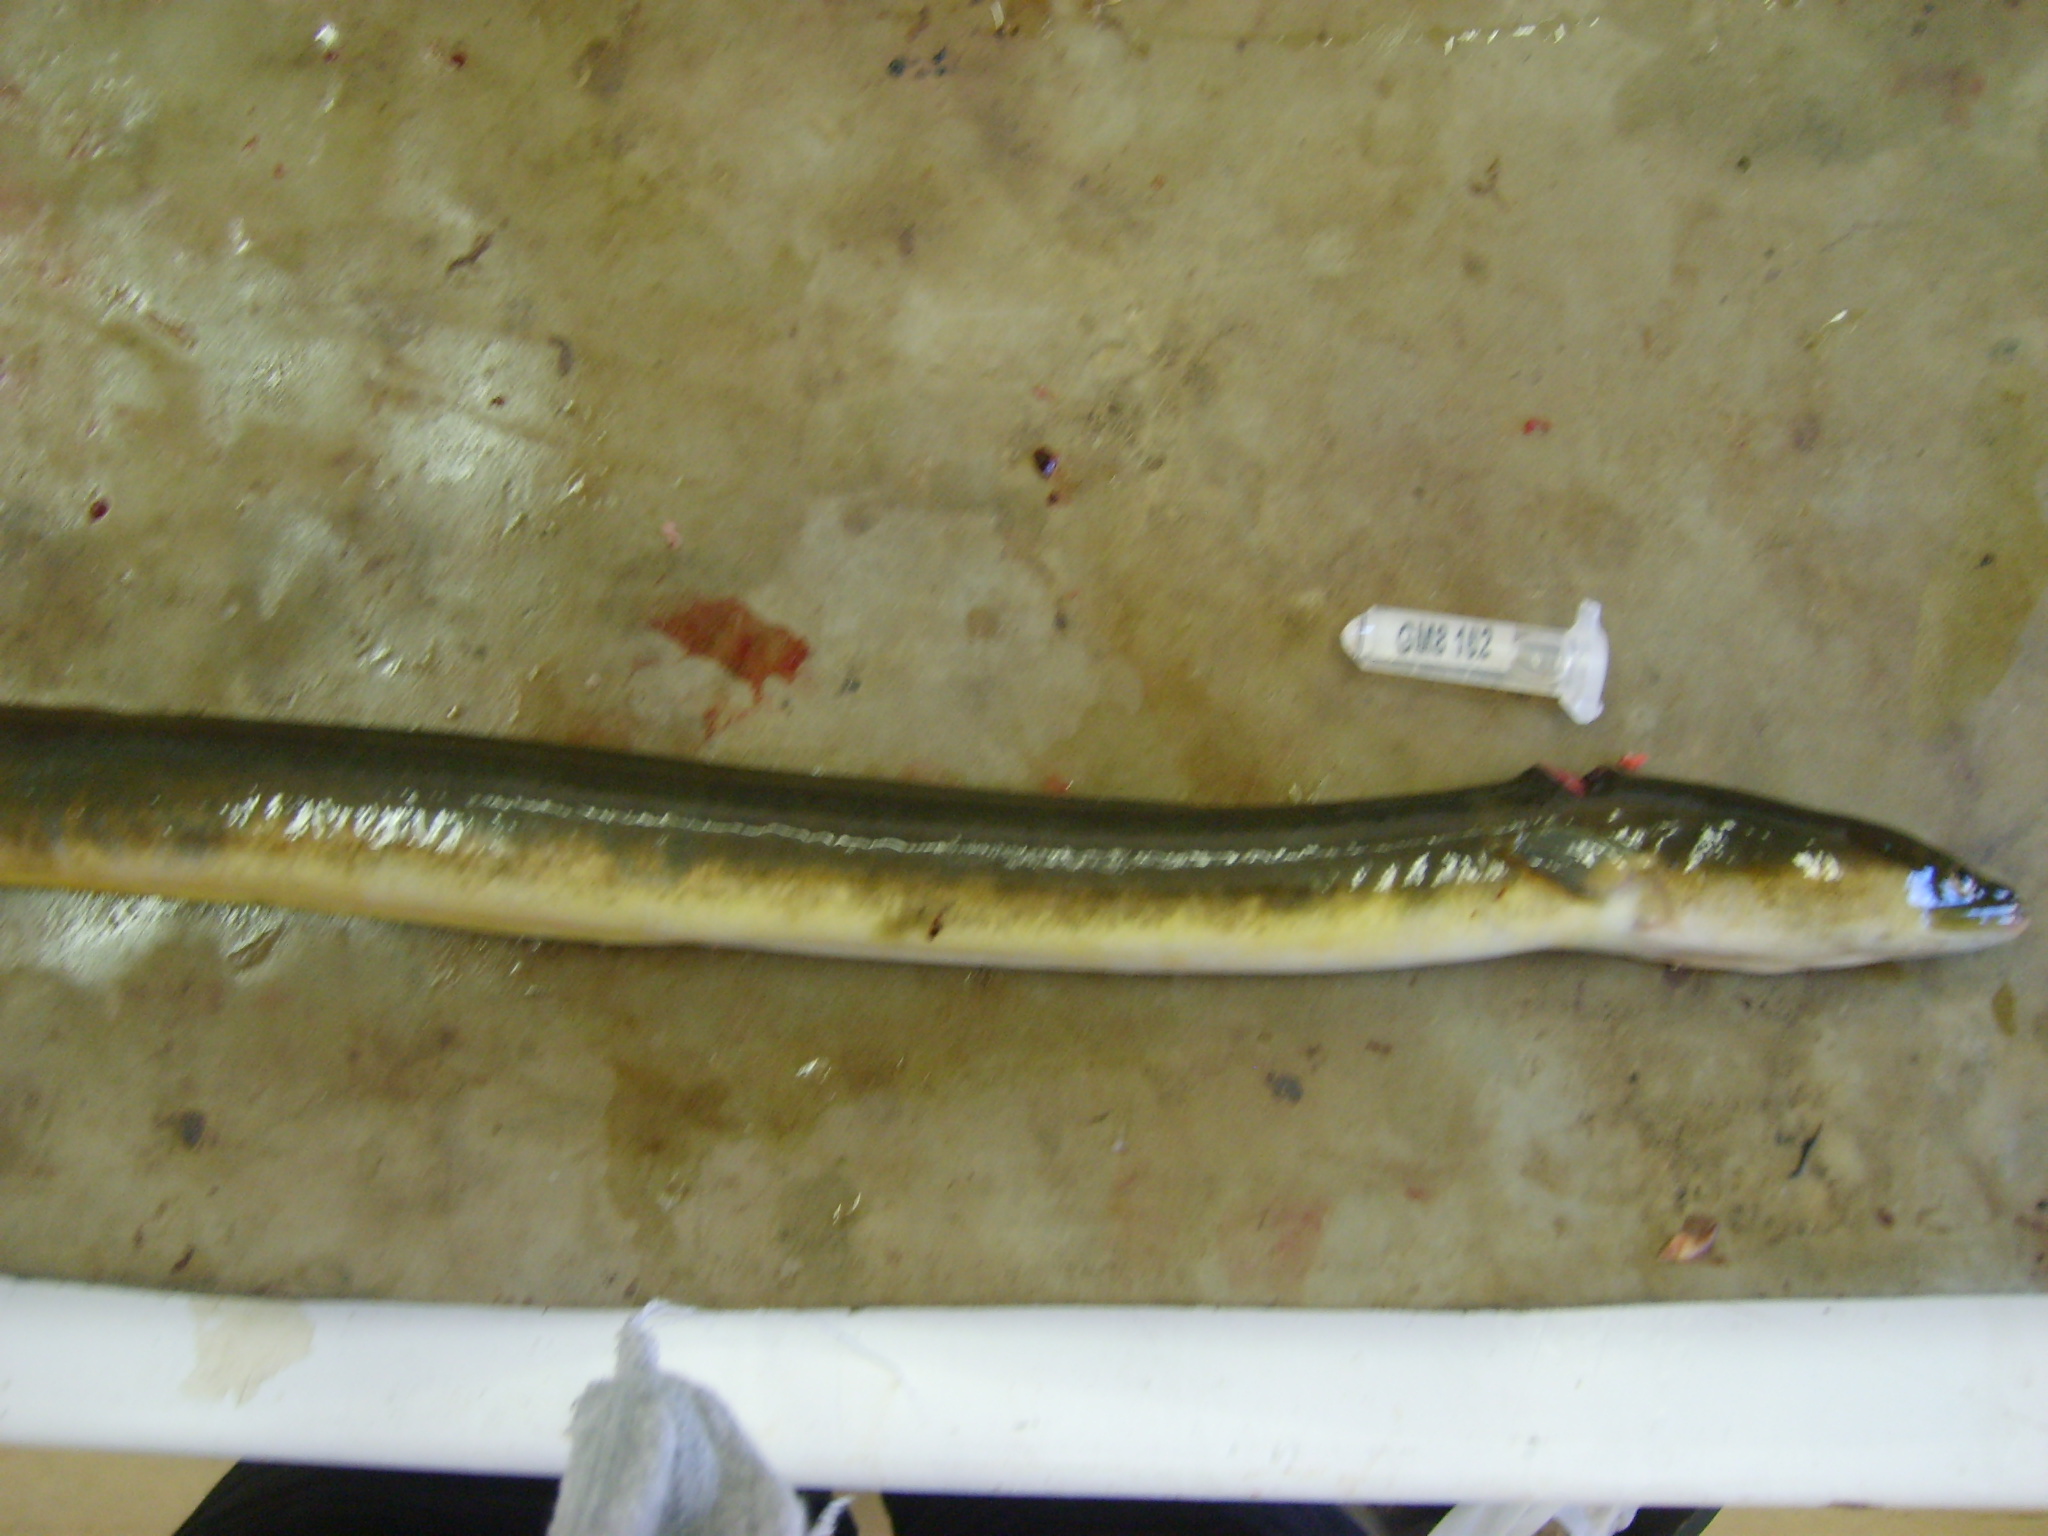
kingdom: Animalia
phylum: Chordata
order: Anguilliformes
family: Anguillidae
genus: Anguilla
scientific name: Anguilla mossambica
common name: African longfin eel
